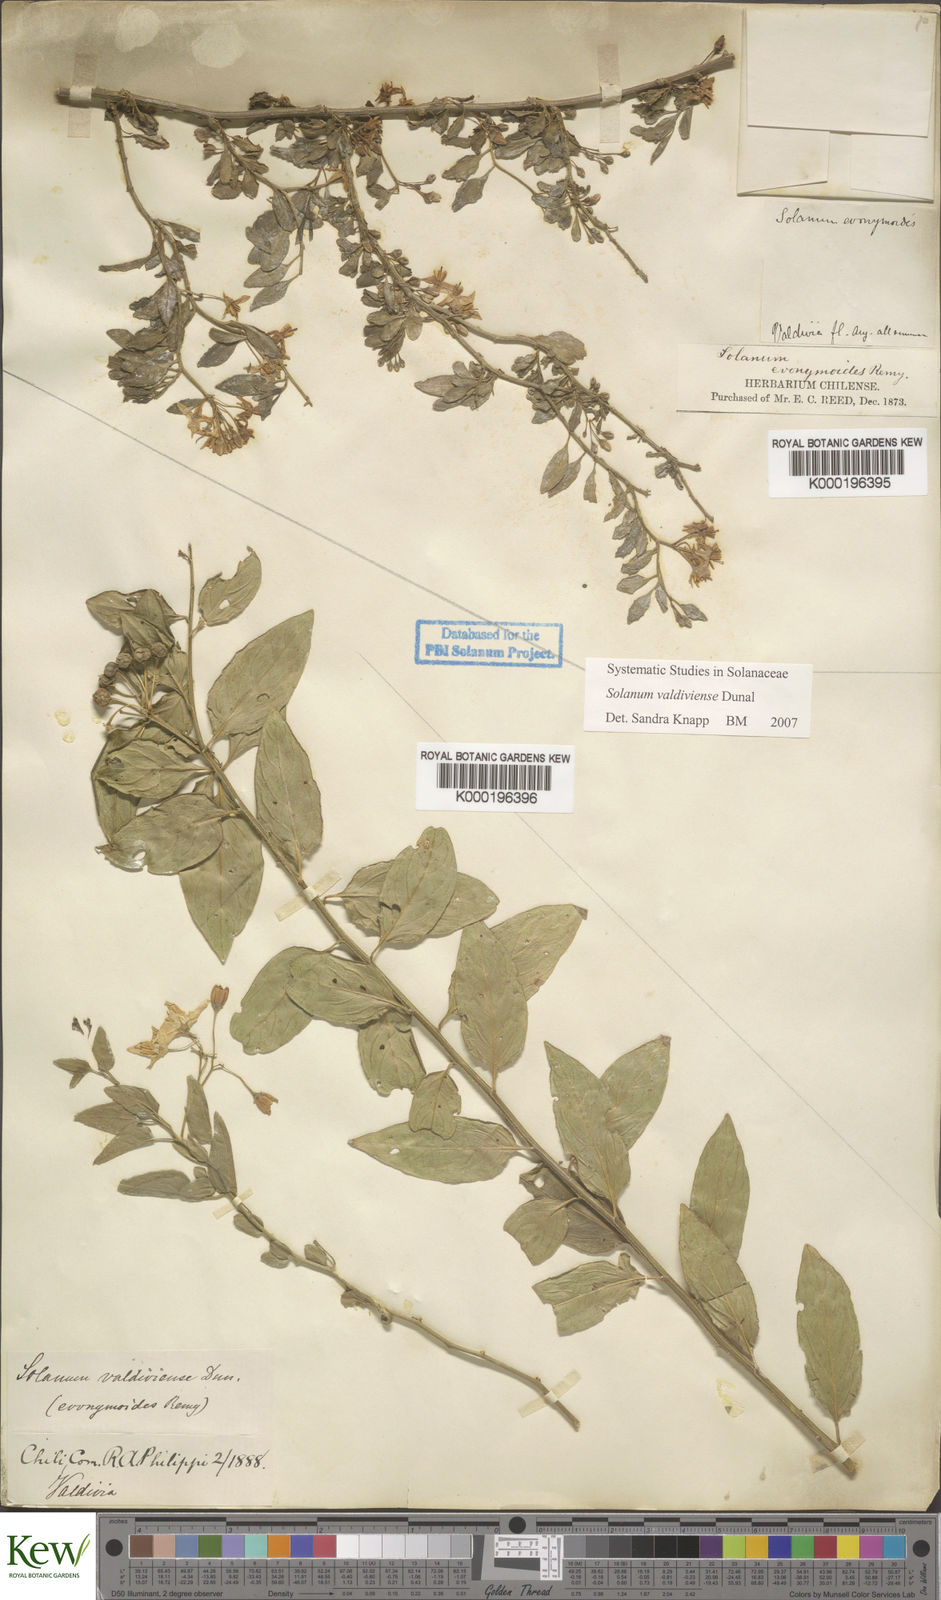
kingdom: Plantae
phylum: Tracheophyta
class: Magnoliopsida
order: Solanales
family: Solanaceae
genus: Solanum
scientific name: Solanum valdiviense
